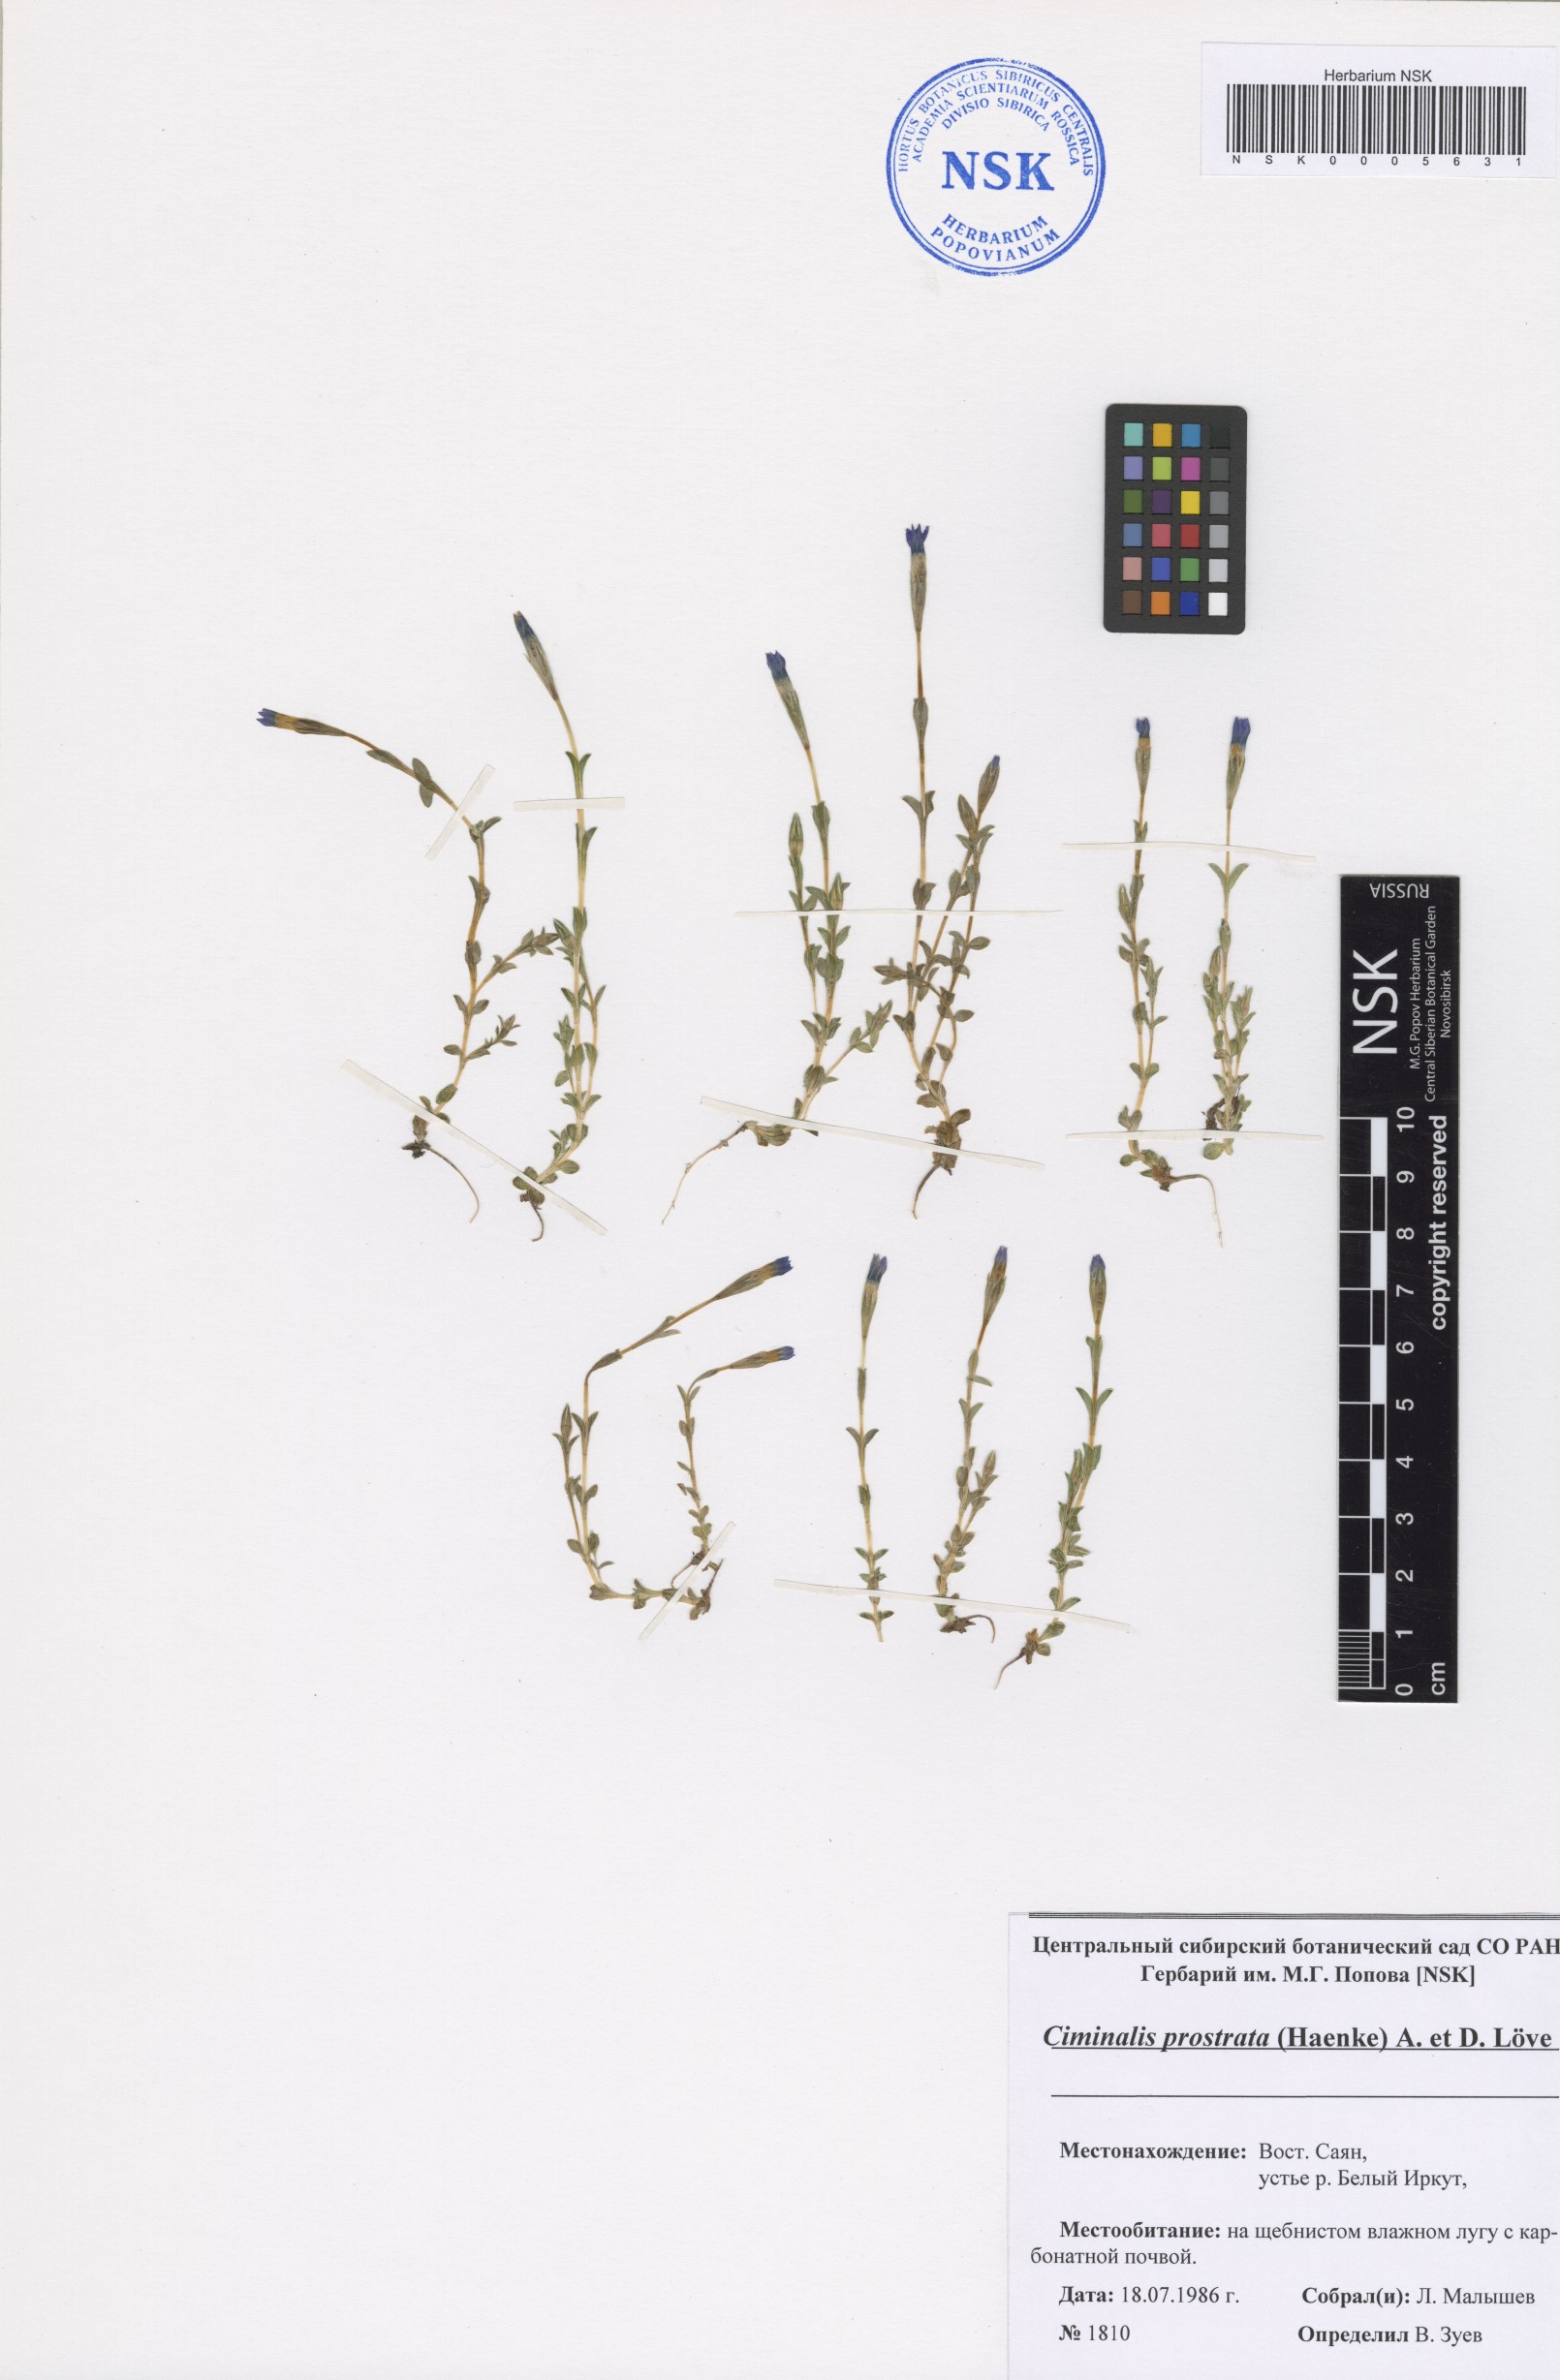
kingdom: Plantae
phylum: Tracheophyta
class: Magnoliopsida
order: Gentianales
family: Gentianaceae
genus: Gentiana
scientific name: Gentiana prostrata
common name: Moss gentian
